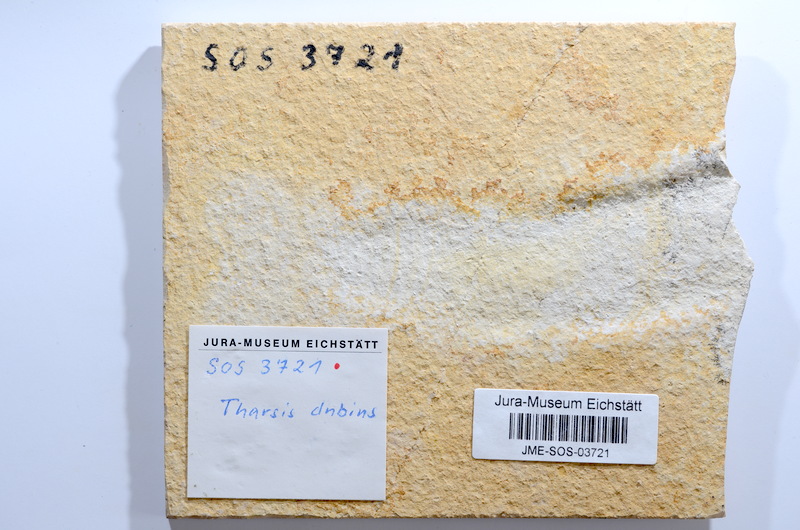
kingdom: Animalia
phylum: Chordata
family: Ascalaboidae
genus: Tharsis
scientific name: Tharsis dubius
